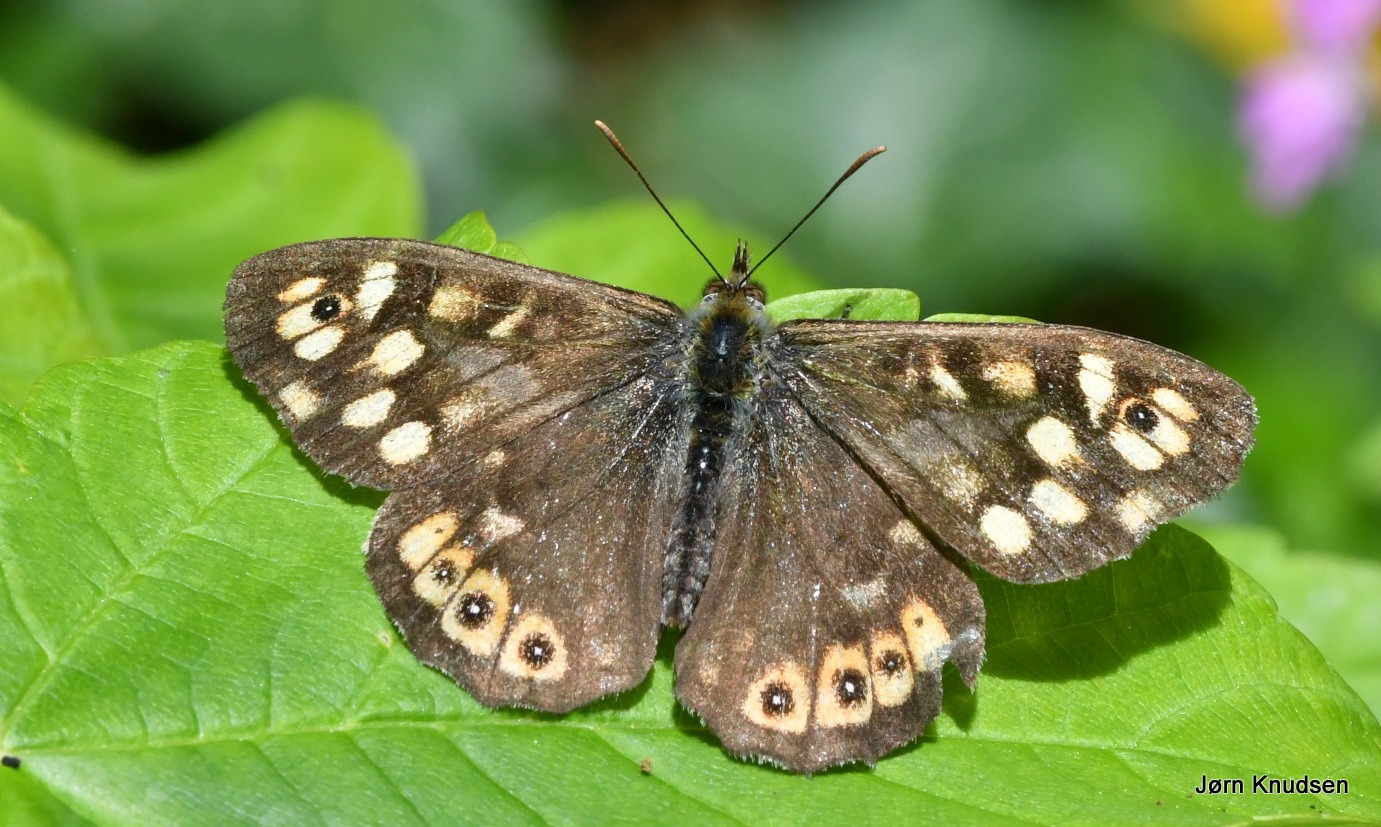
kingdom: Animalia
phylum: Arthropoda
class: Insecta
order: Lepidoptera
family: Nymphalidae
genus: Pararge
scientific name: Pararge aegeria
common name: Skovrandøje
